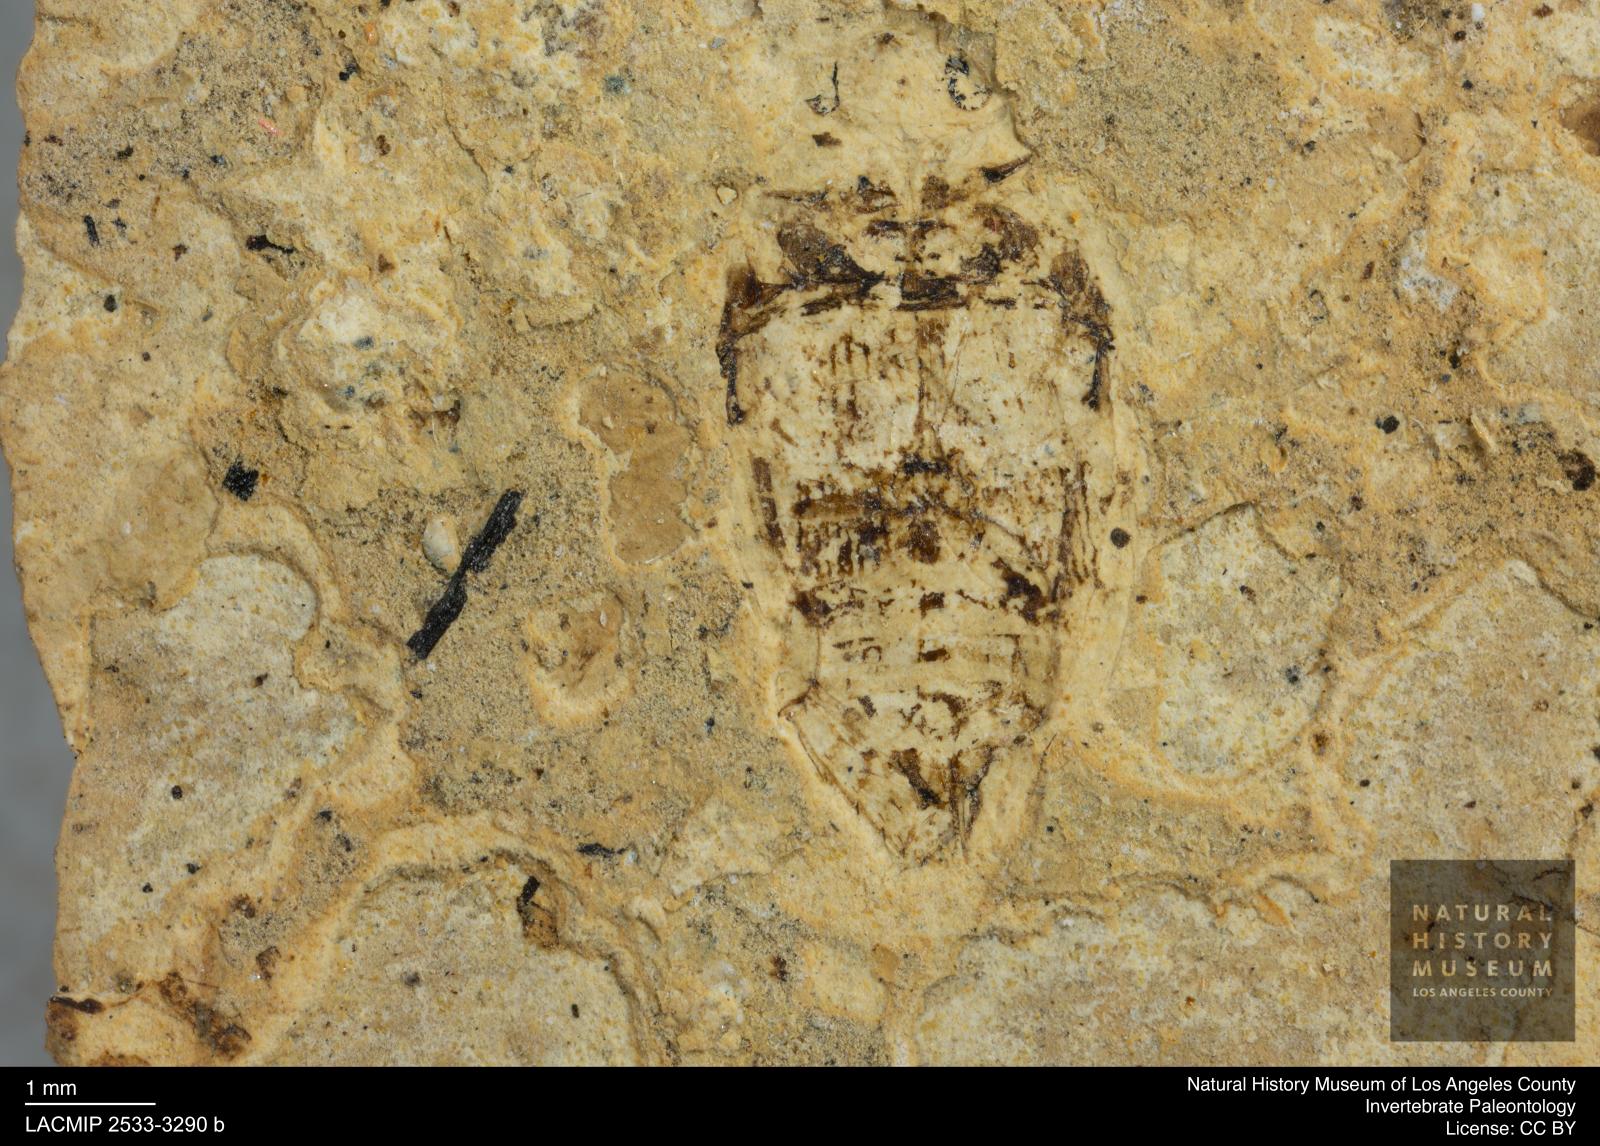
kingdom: Animalia
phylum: Arthropoda
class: Insecta
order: Coleoptera
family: Dytiscidae
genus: Laccophilus
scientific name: Laccophilus Palaeogyrinus strigatus
